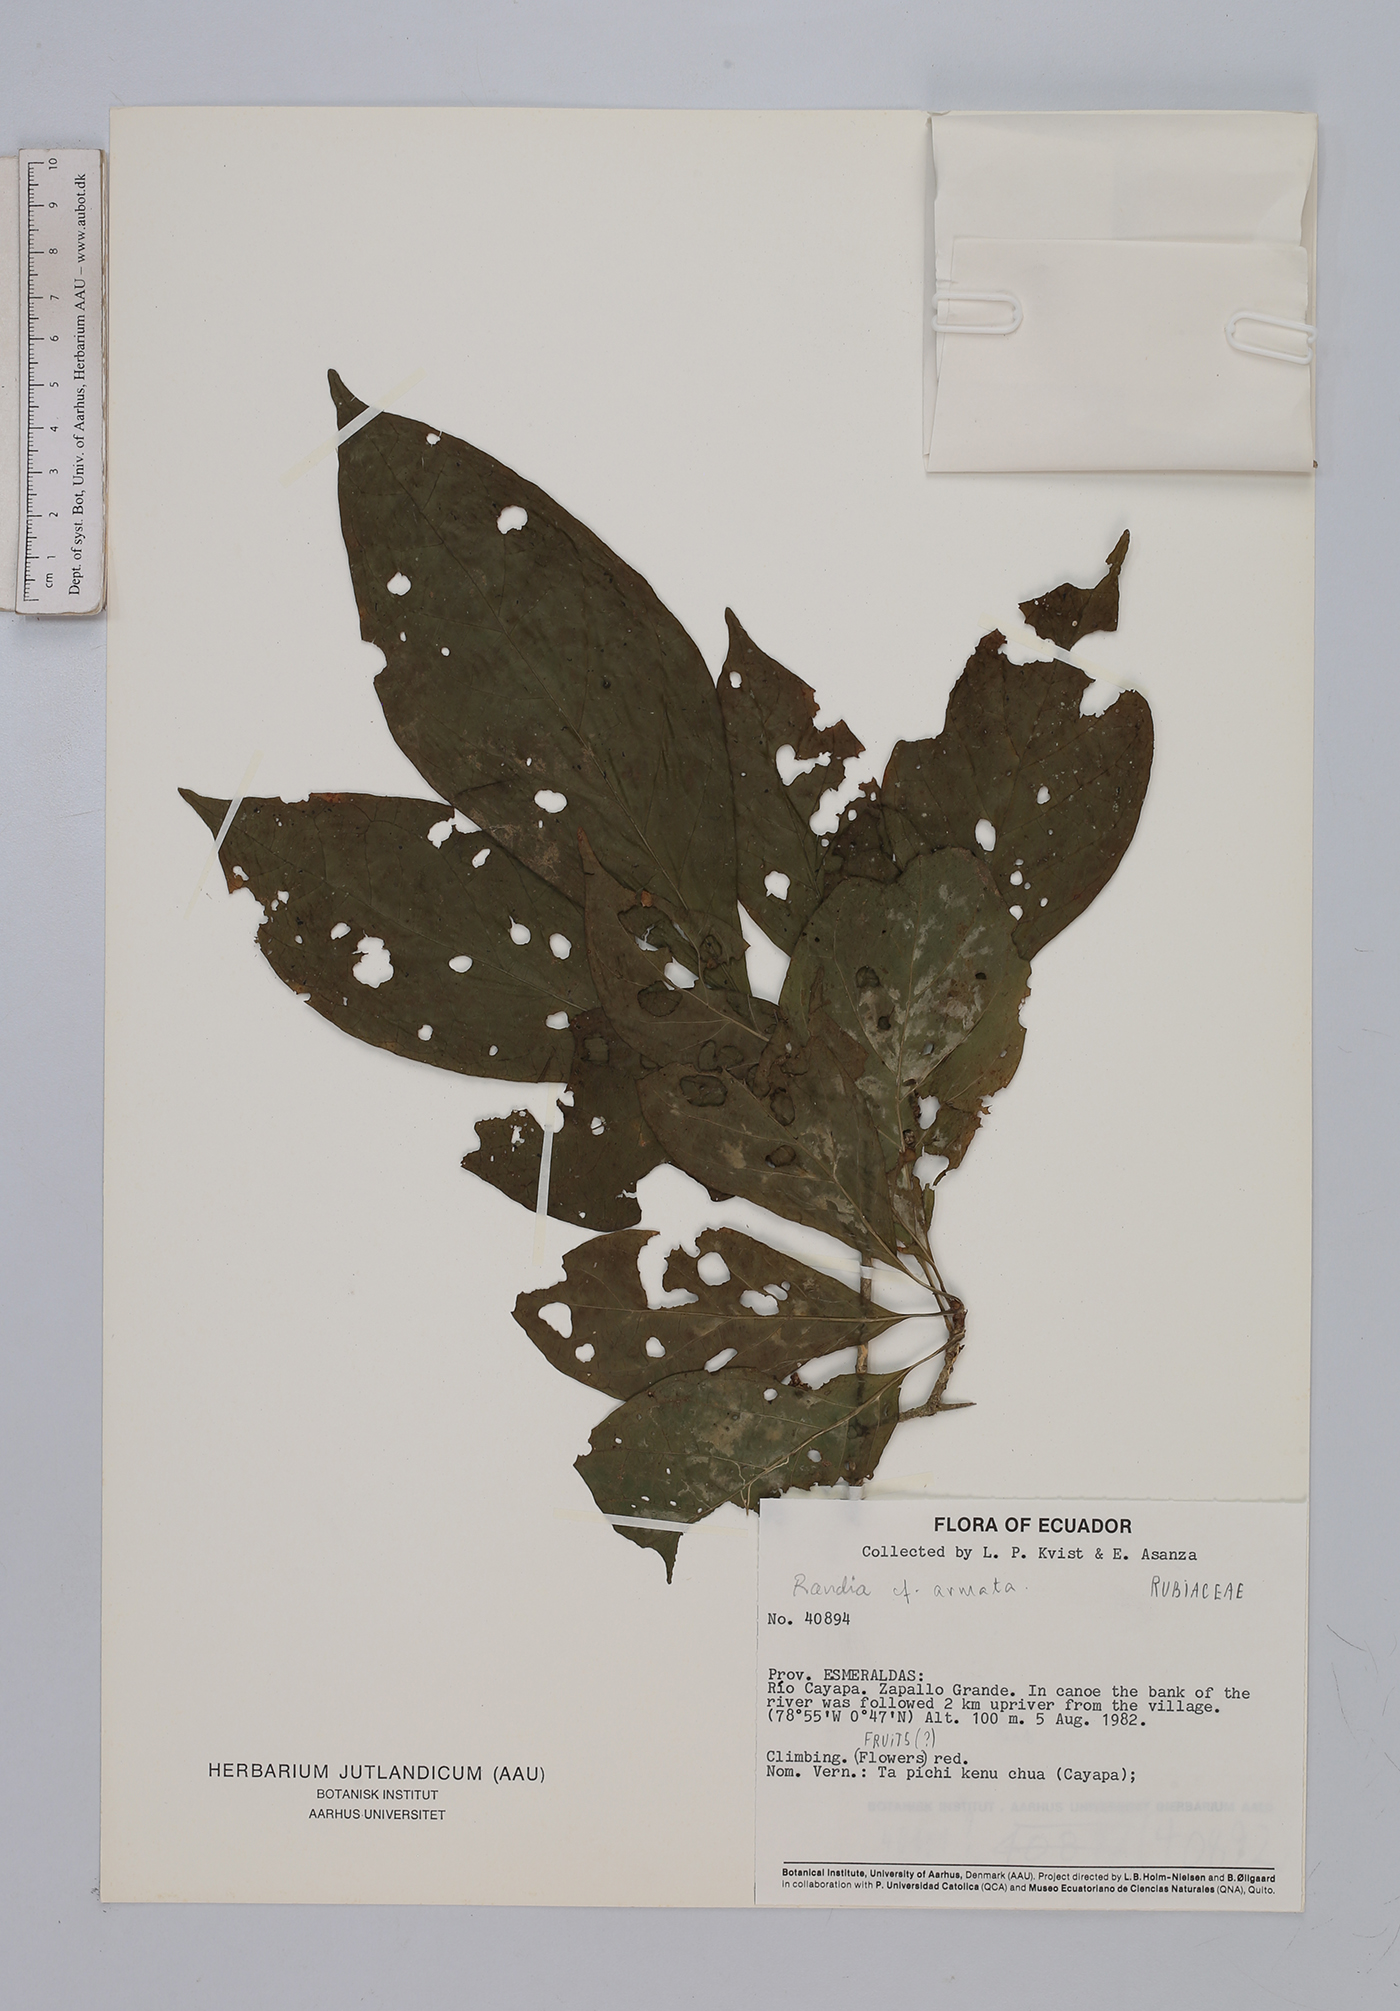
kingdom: Plantae
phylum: Tracheophyta
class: Magnoliopsida
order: Gentianales
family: Rubiaceae
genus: Randia
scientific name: Randia
